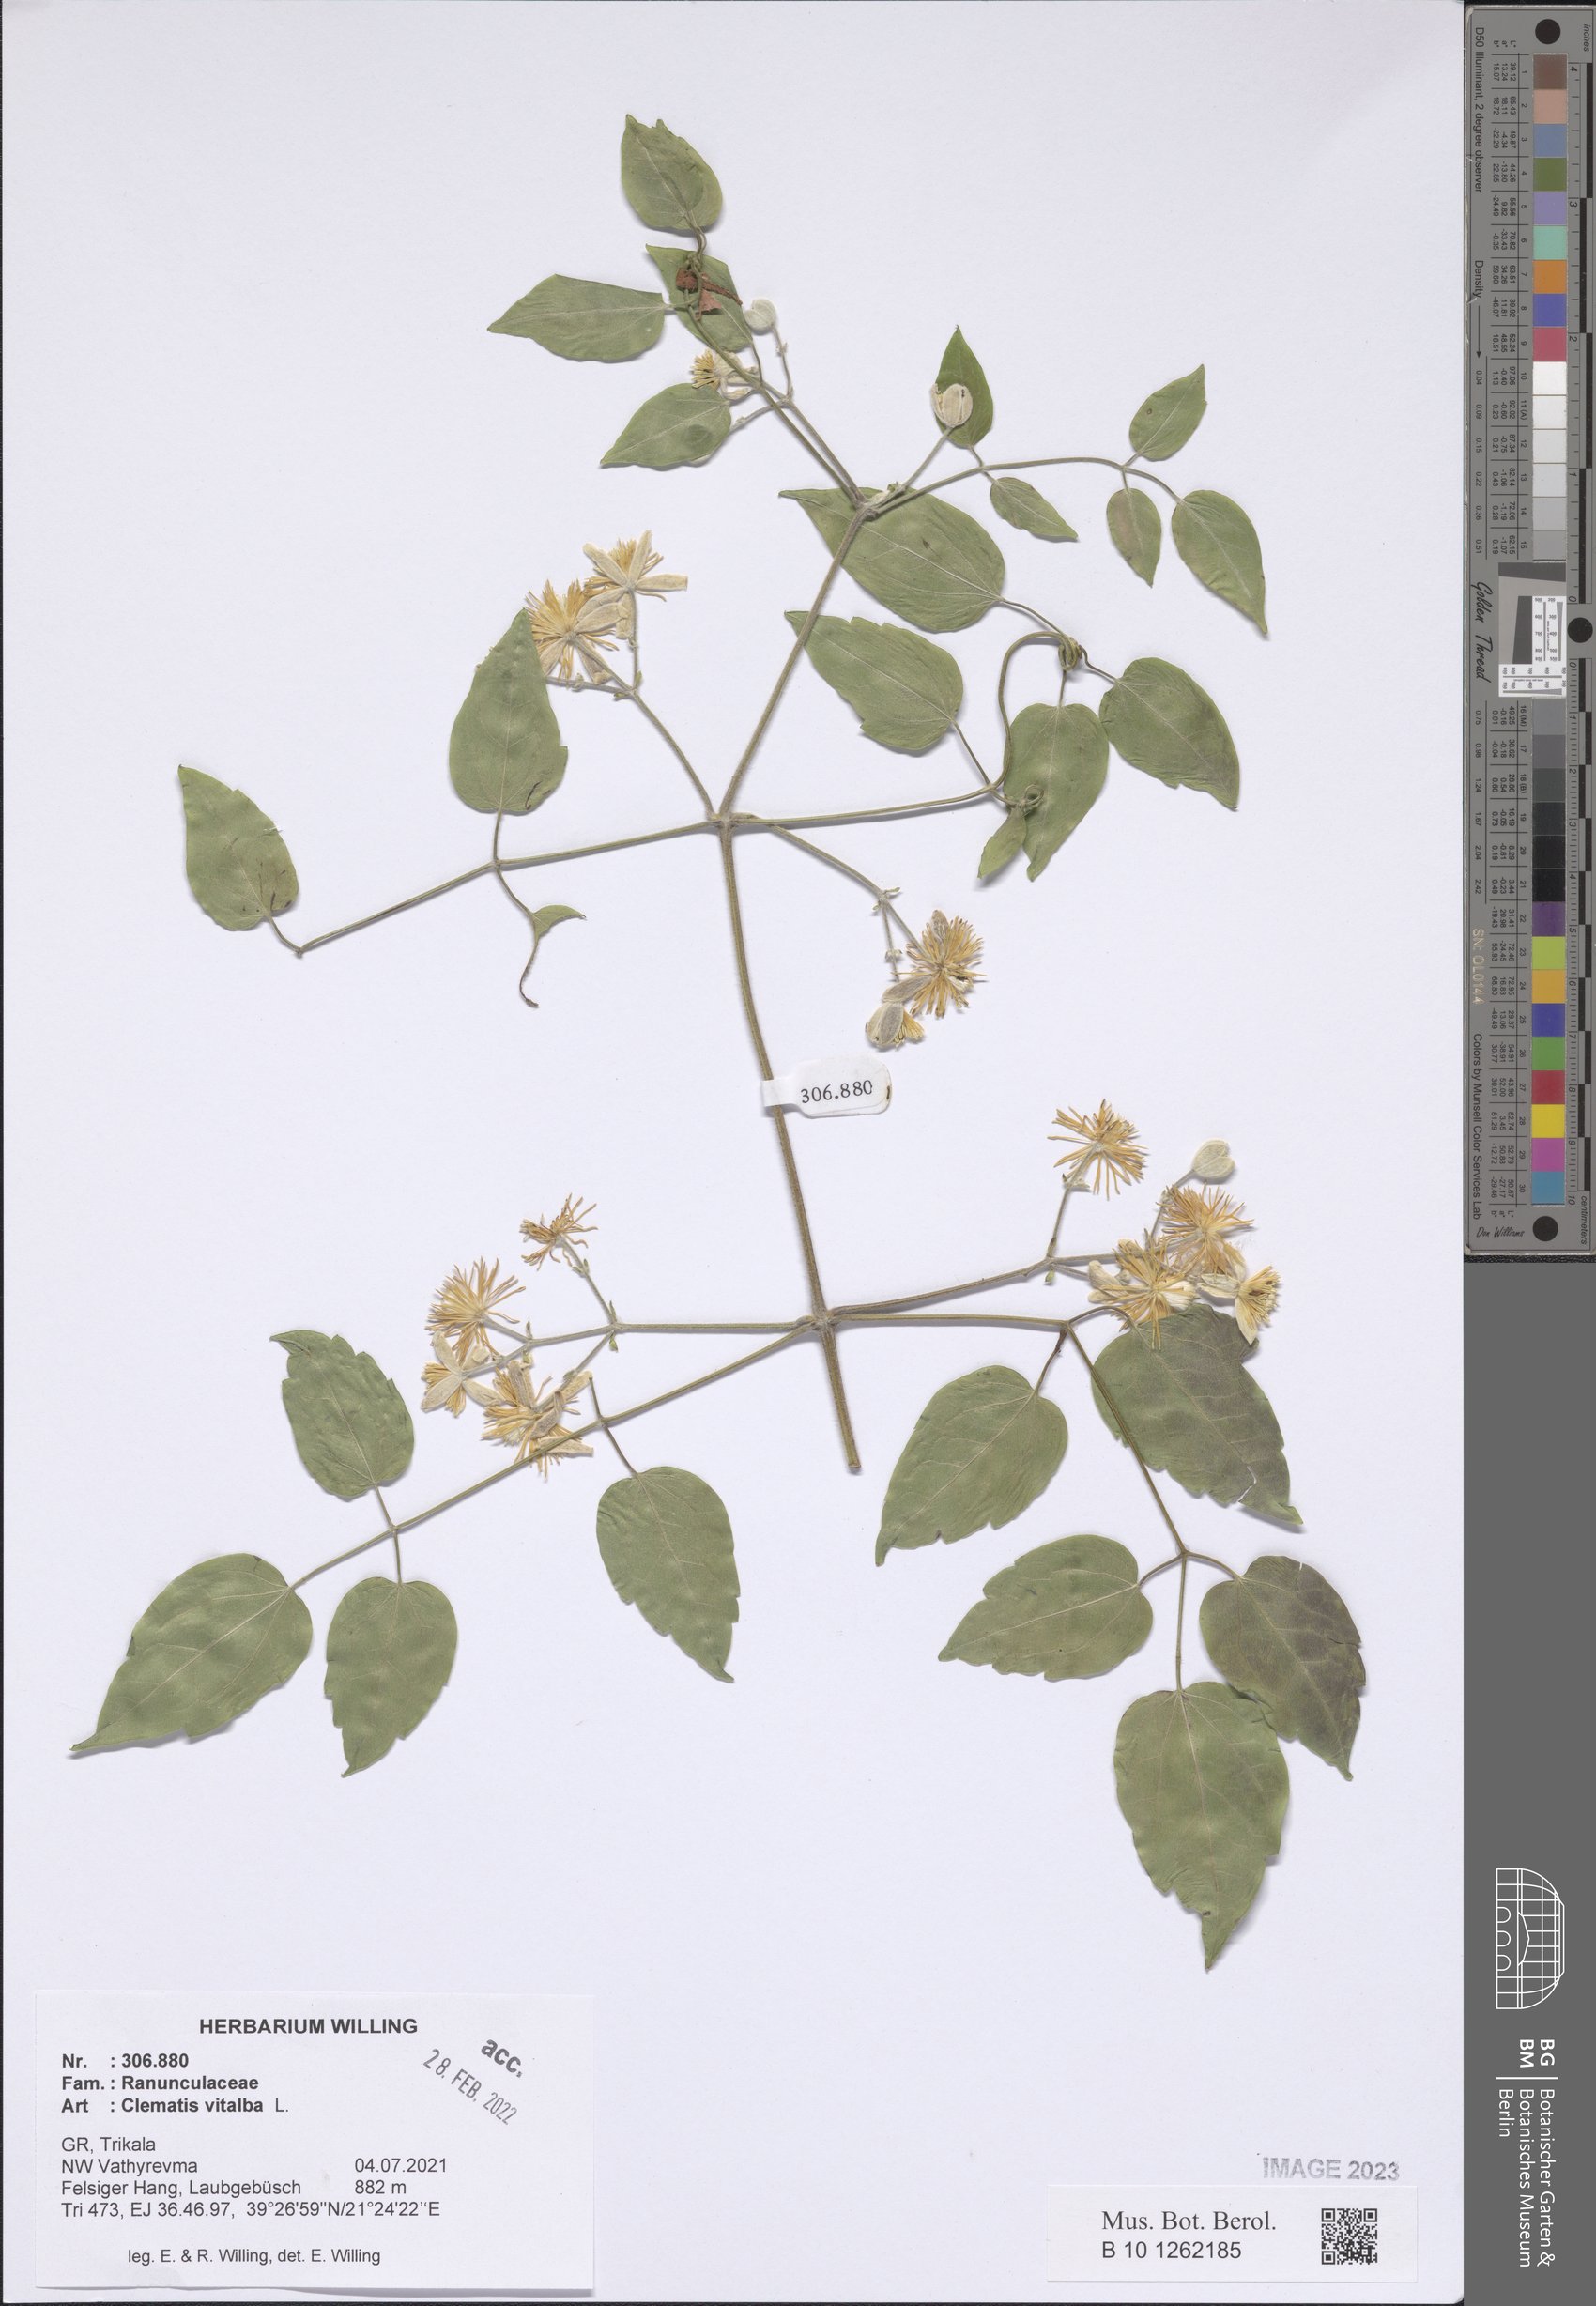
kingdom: Plantae
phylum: Tracheophyta
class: Magnoliopsida
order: Ranunculales
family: Ranunculaceae
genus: Clematis
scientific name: Clematis vitalba
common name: Evergreen clematis
